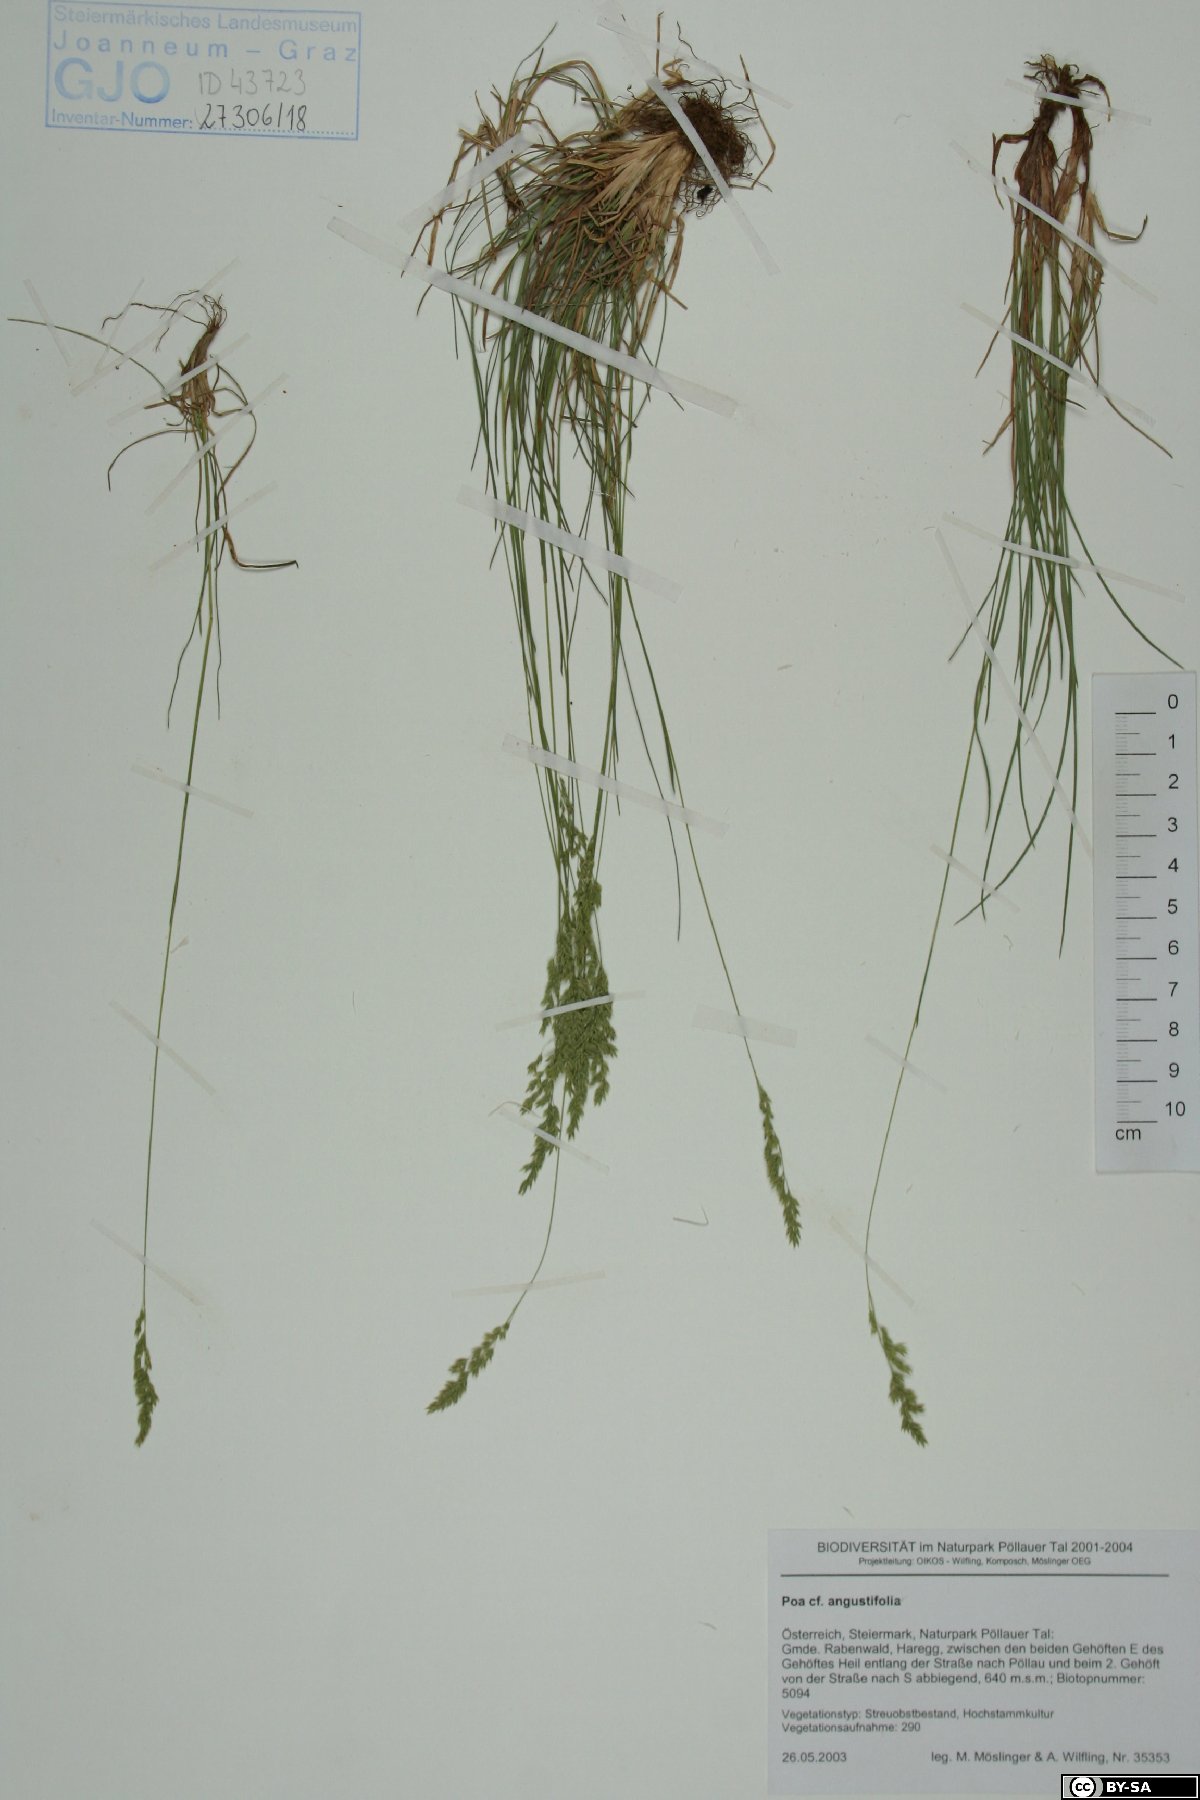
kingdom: Plantae
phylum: Tracheophyta
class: Liliopsida
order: Poales
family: Poaceae
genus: Poa
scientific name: Poa angustifolia
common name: Narrow-leaved meadow-grass
